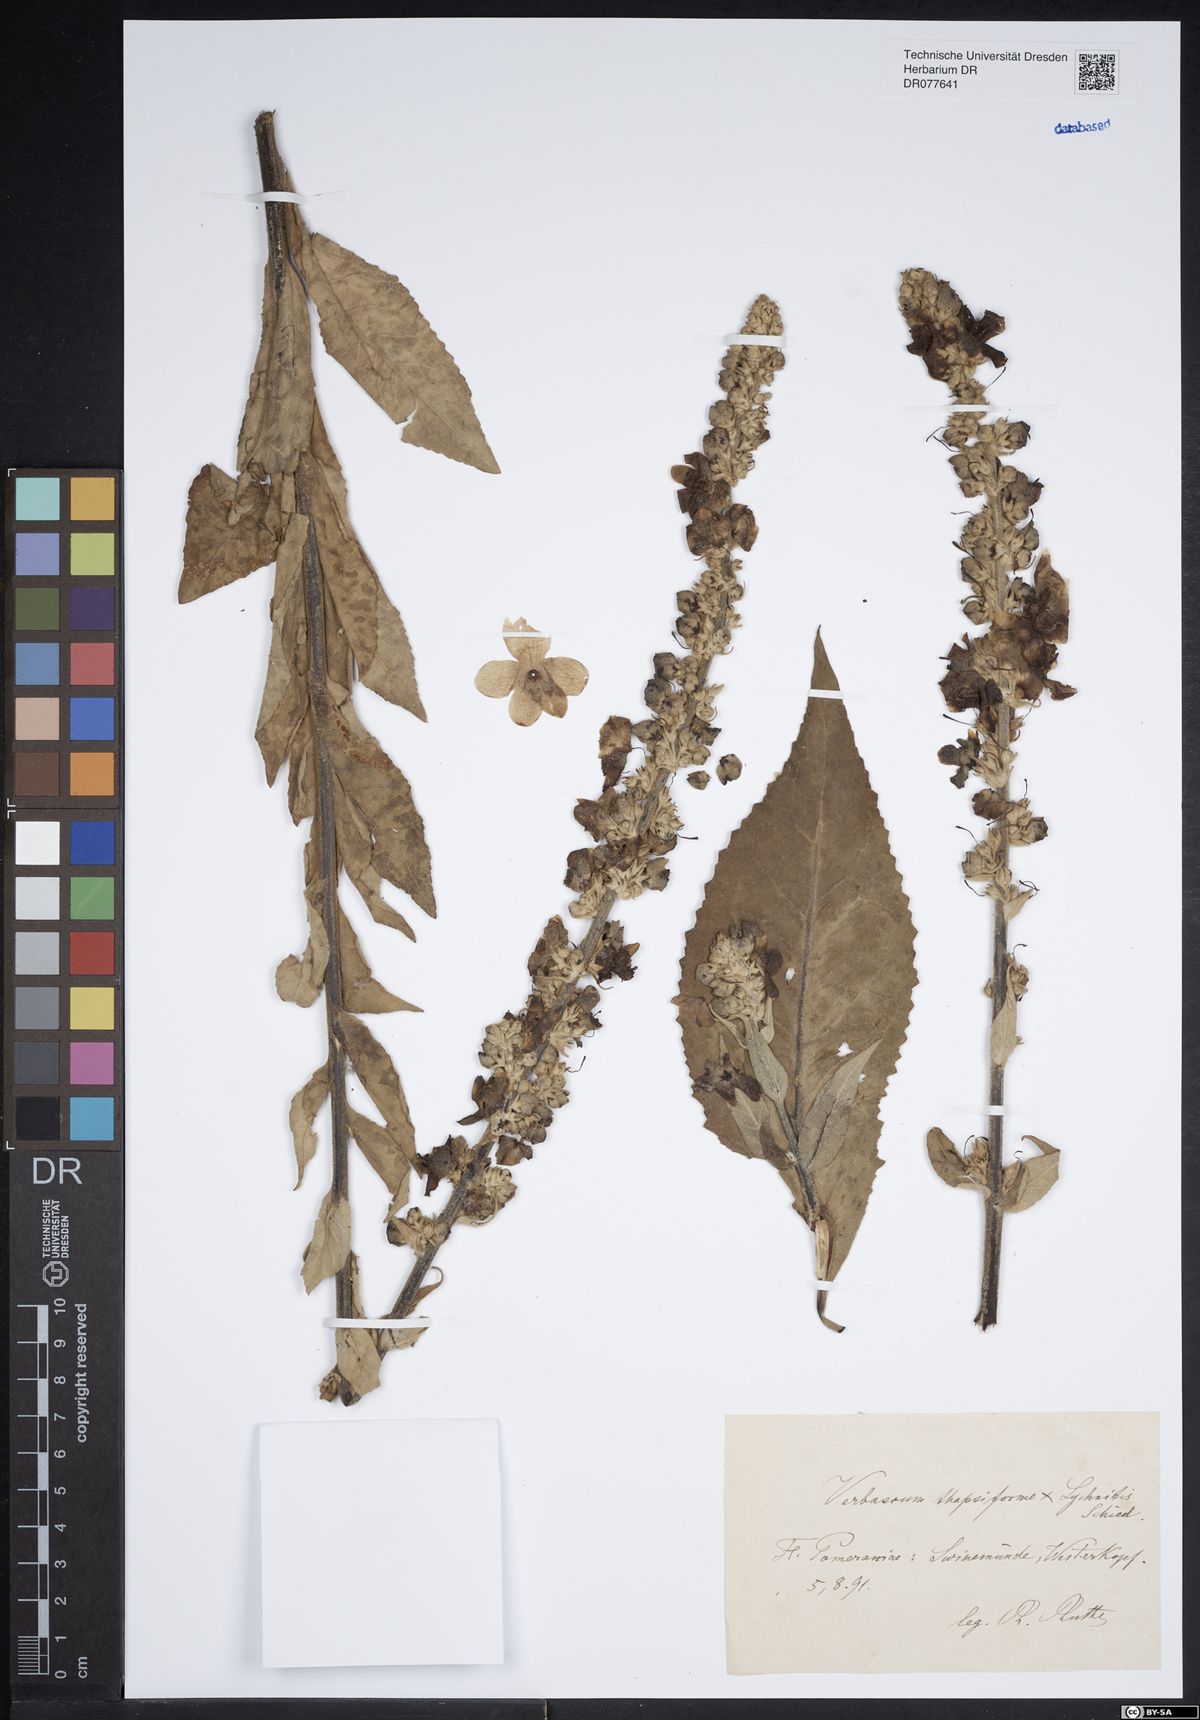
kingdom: Plantae
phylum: Tracheophyta
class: Magnoliopsida
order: Lamiales
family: Scrophulariaceae
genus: Verbascum
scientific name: Verbascum
